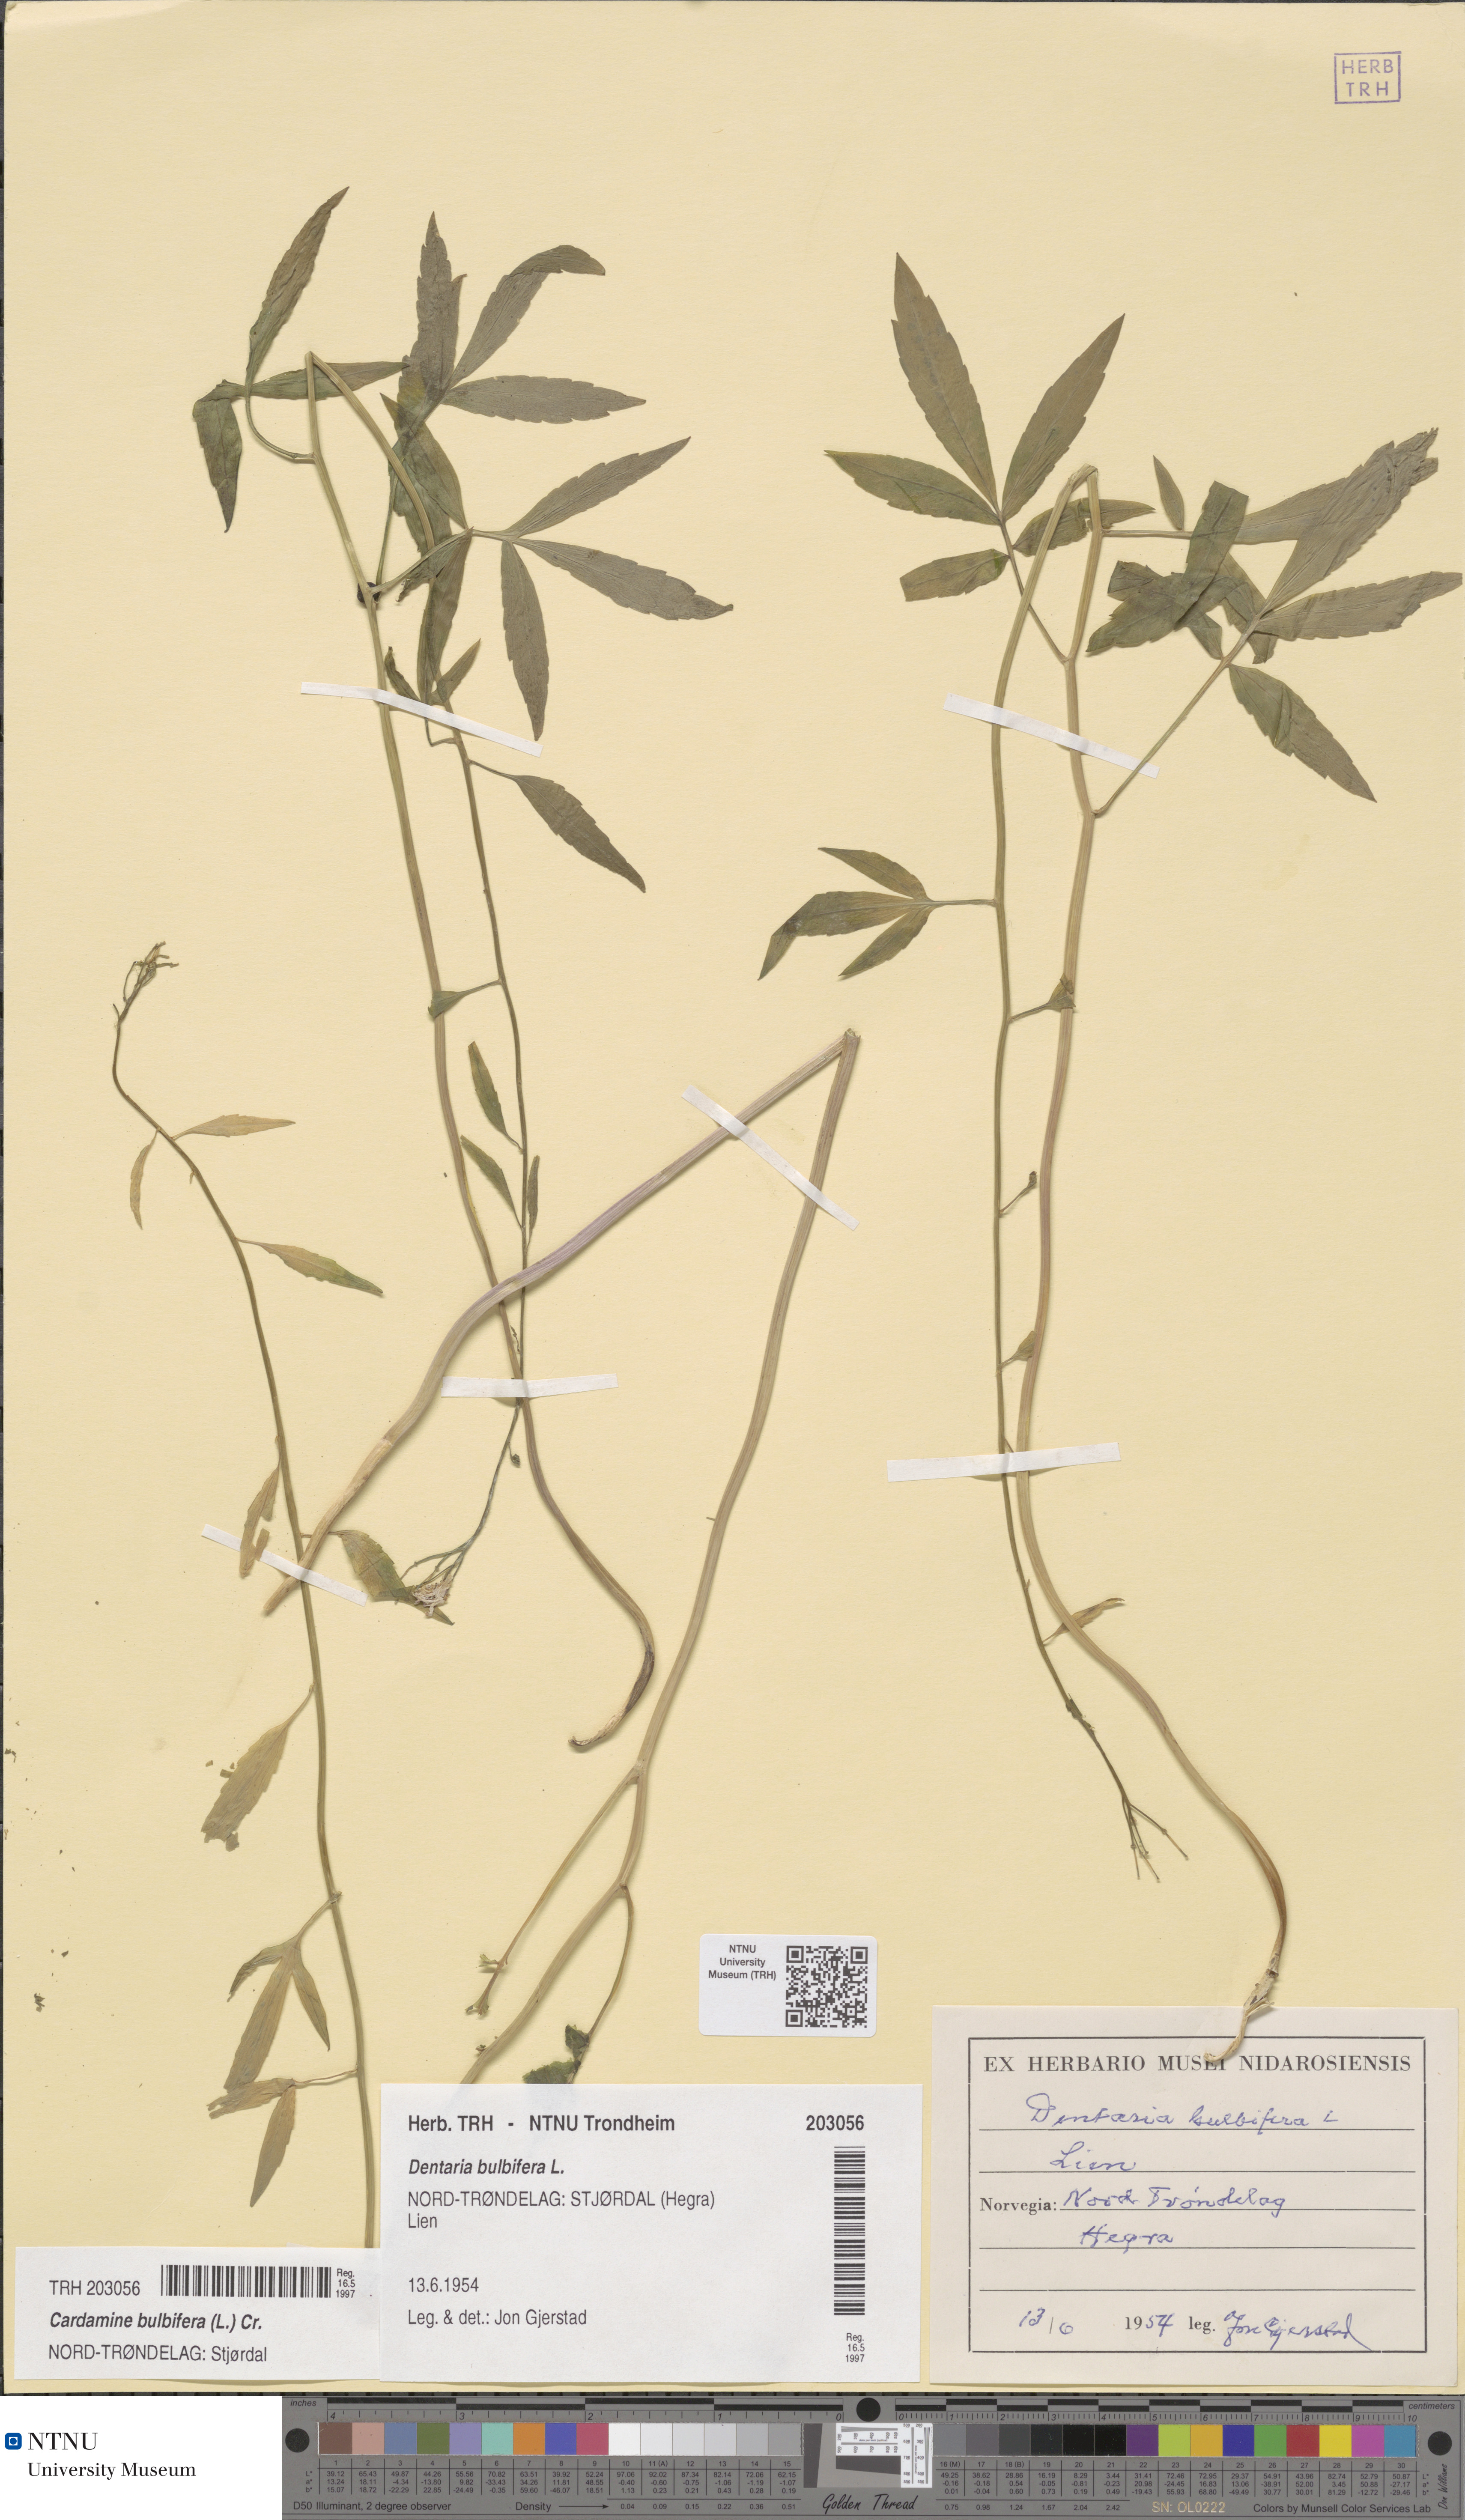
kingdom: Plantae
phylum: Tracheophyta
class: Magnoliopsida
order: Brassicales
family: Brassicaceae
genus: Cardamine
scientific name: Cardamine bulbifera
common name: Coralroot bittercress
